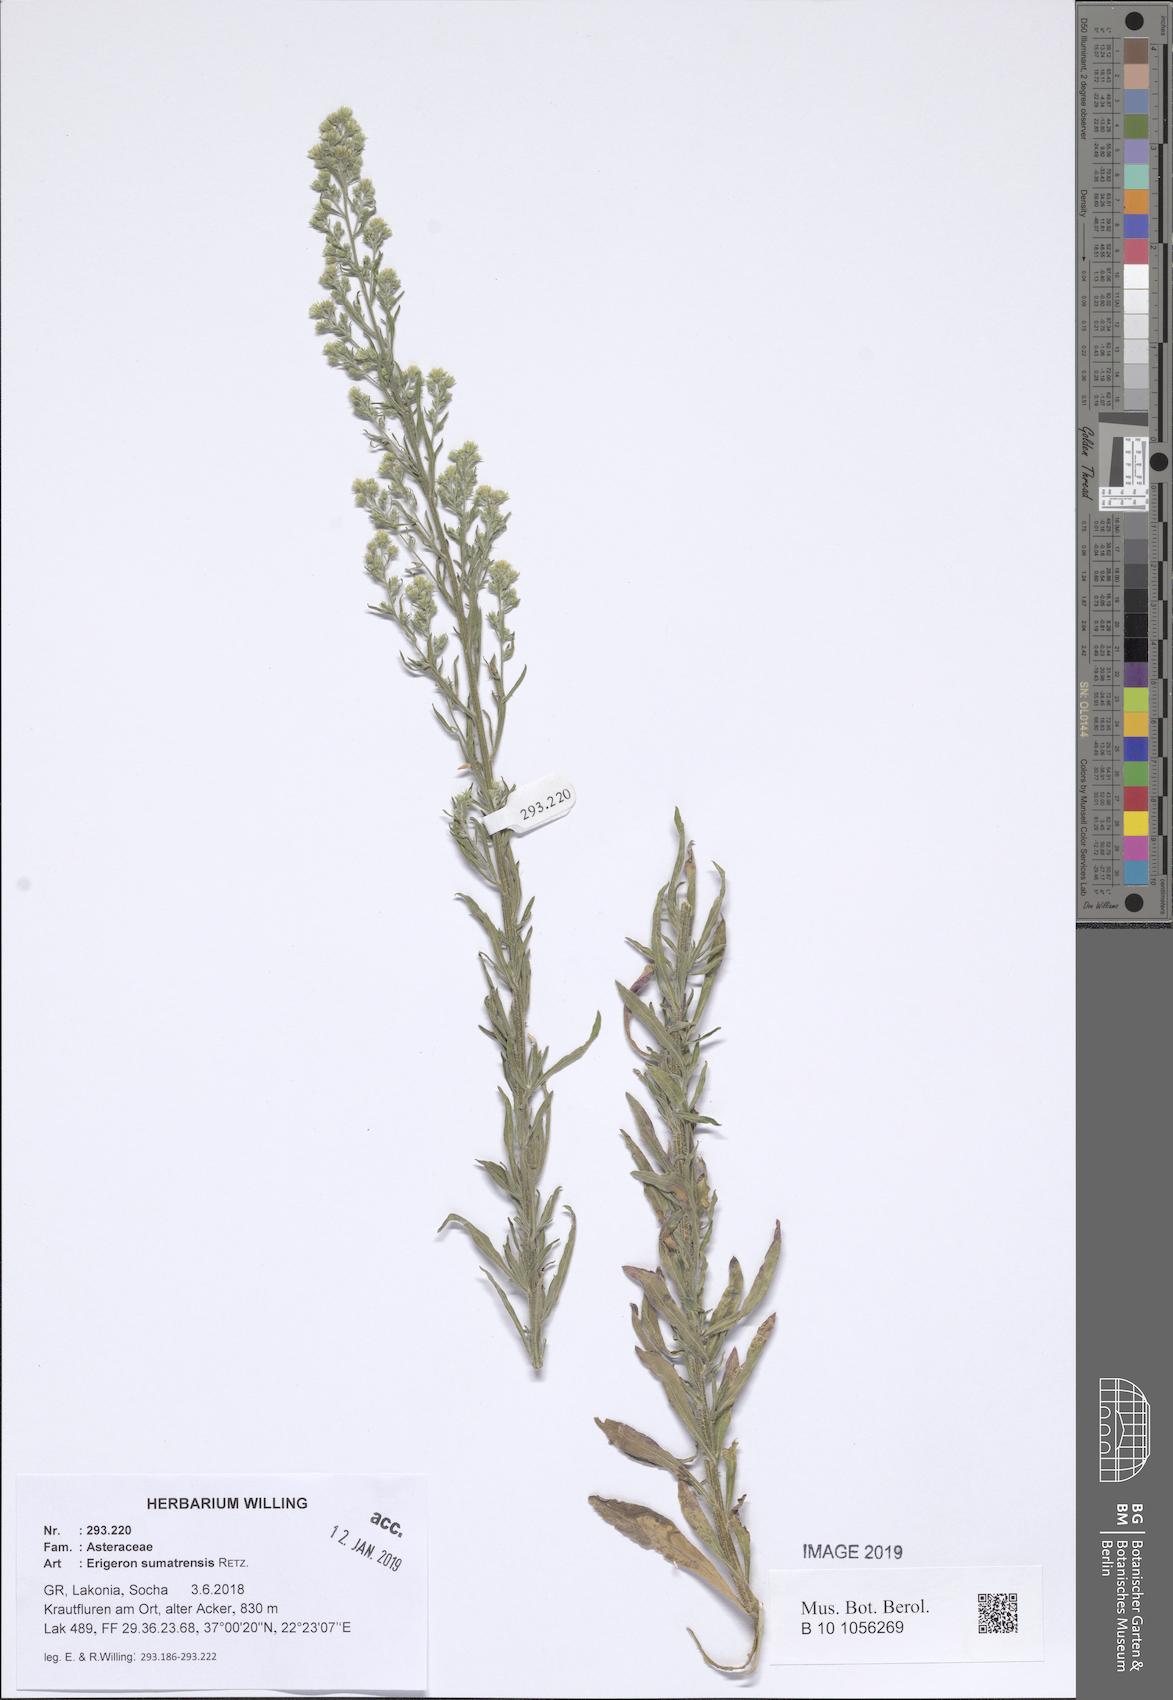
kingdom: Plantae
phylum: Tracheophyta
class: Magnoliopsida
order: Asterales
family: Asteraceae
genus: Erigeron
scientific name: Erigeron sumatrensis
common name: Daisy
